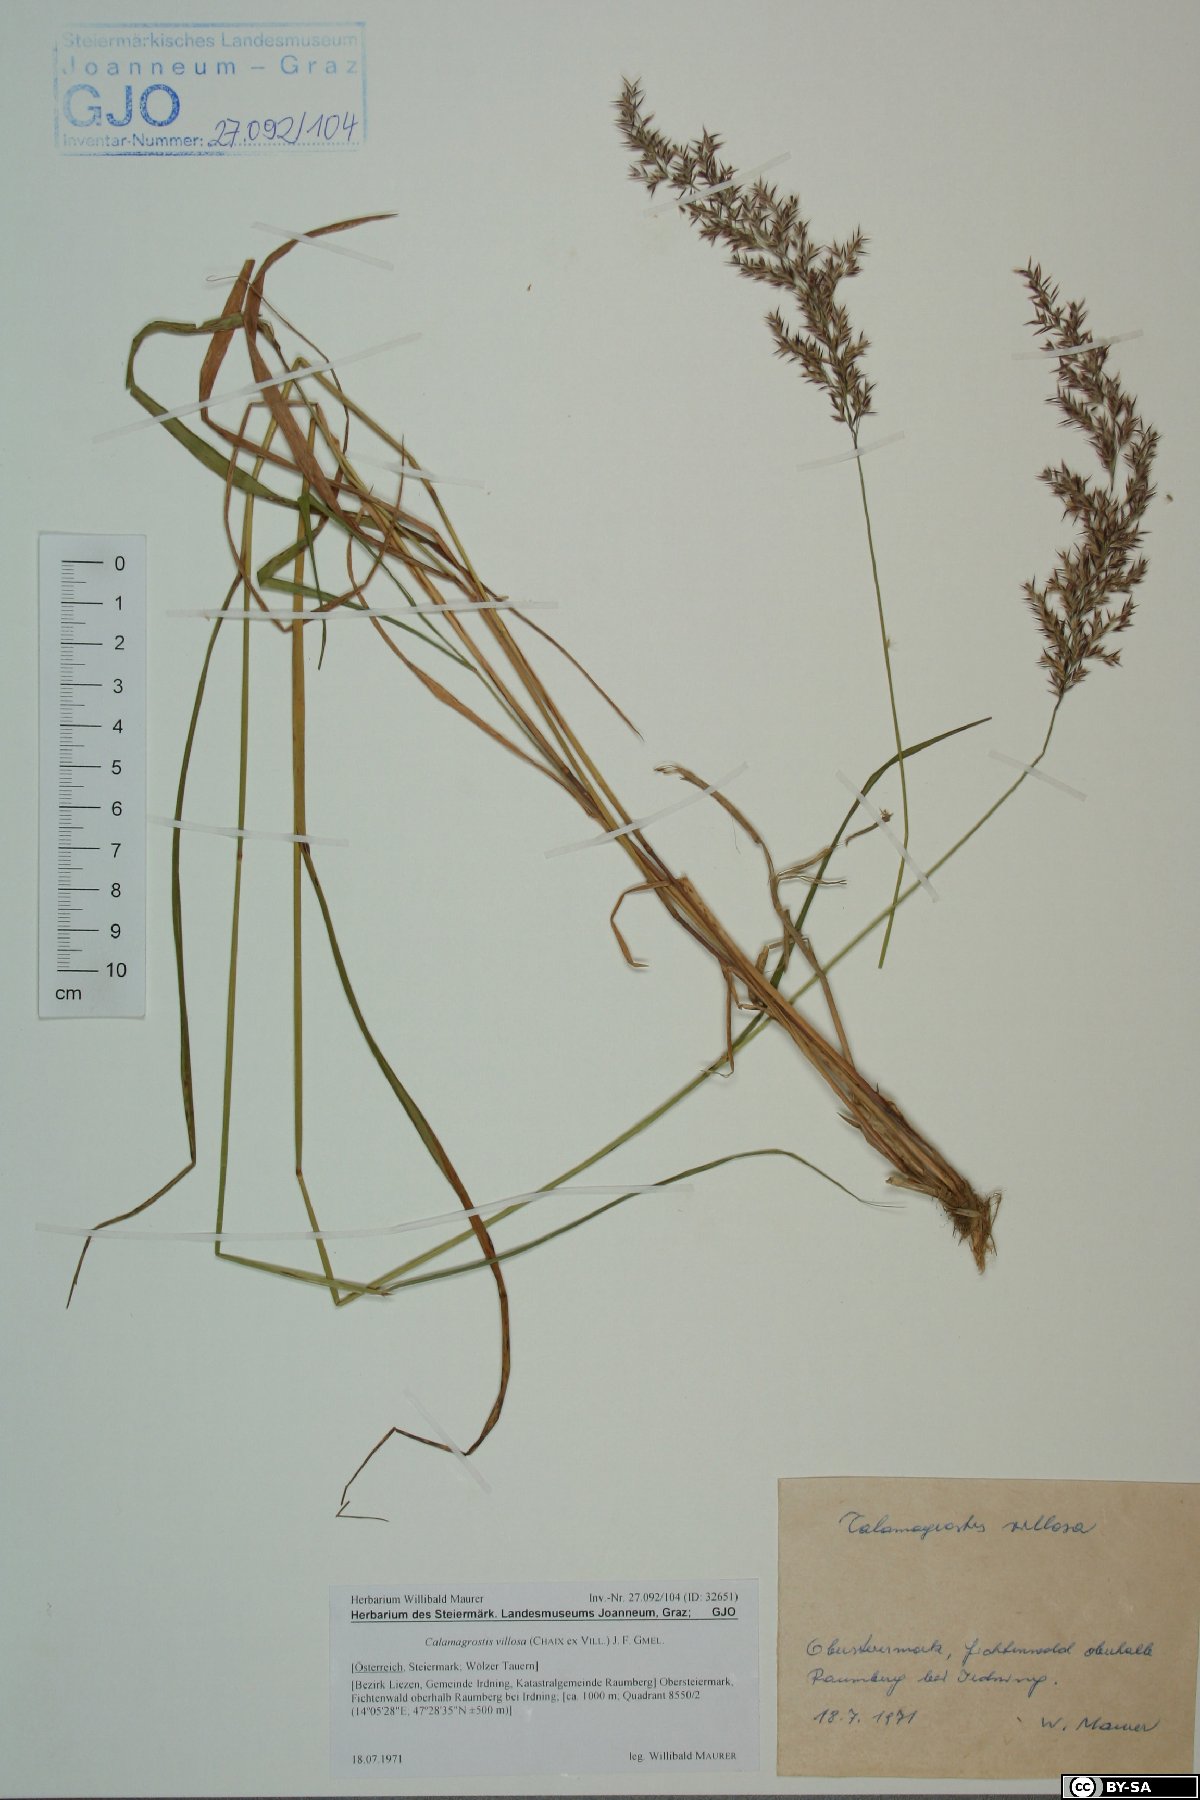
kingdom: Plantae
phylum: Tracheophyta
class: Liliopsida
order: Poales
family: Poaceae
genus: Calamagrostis
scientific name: Calamagrostis villosa
